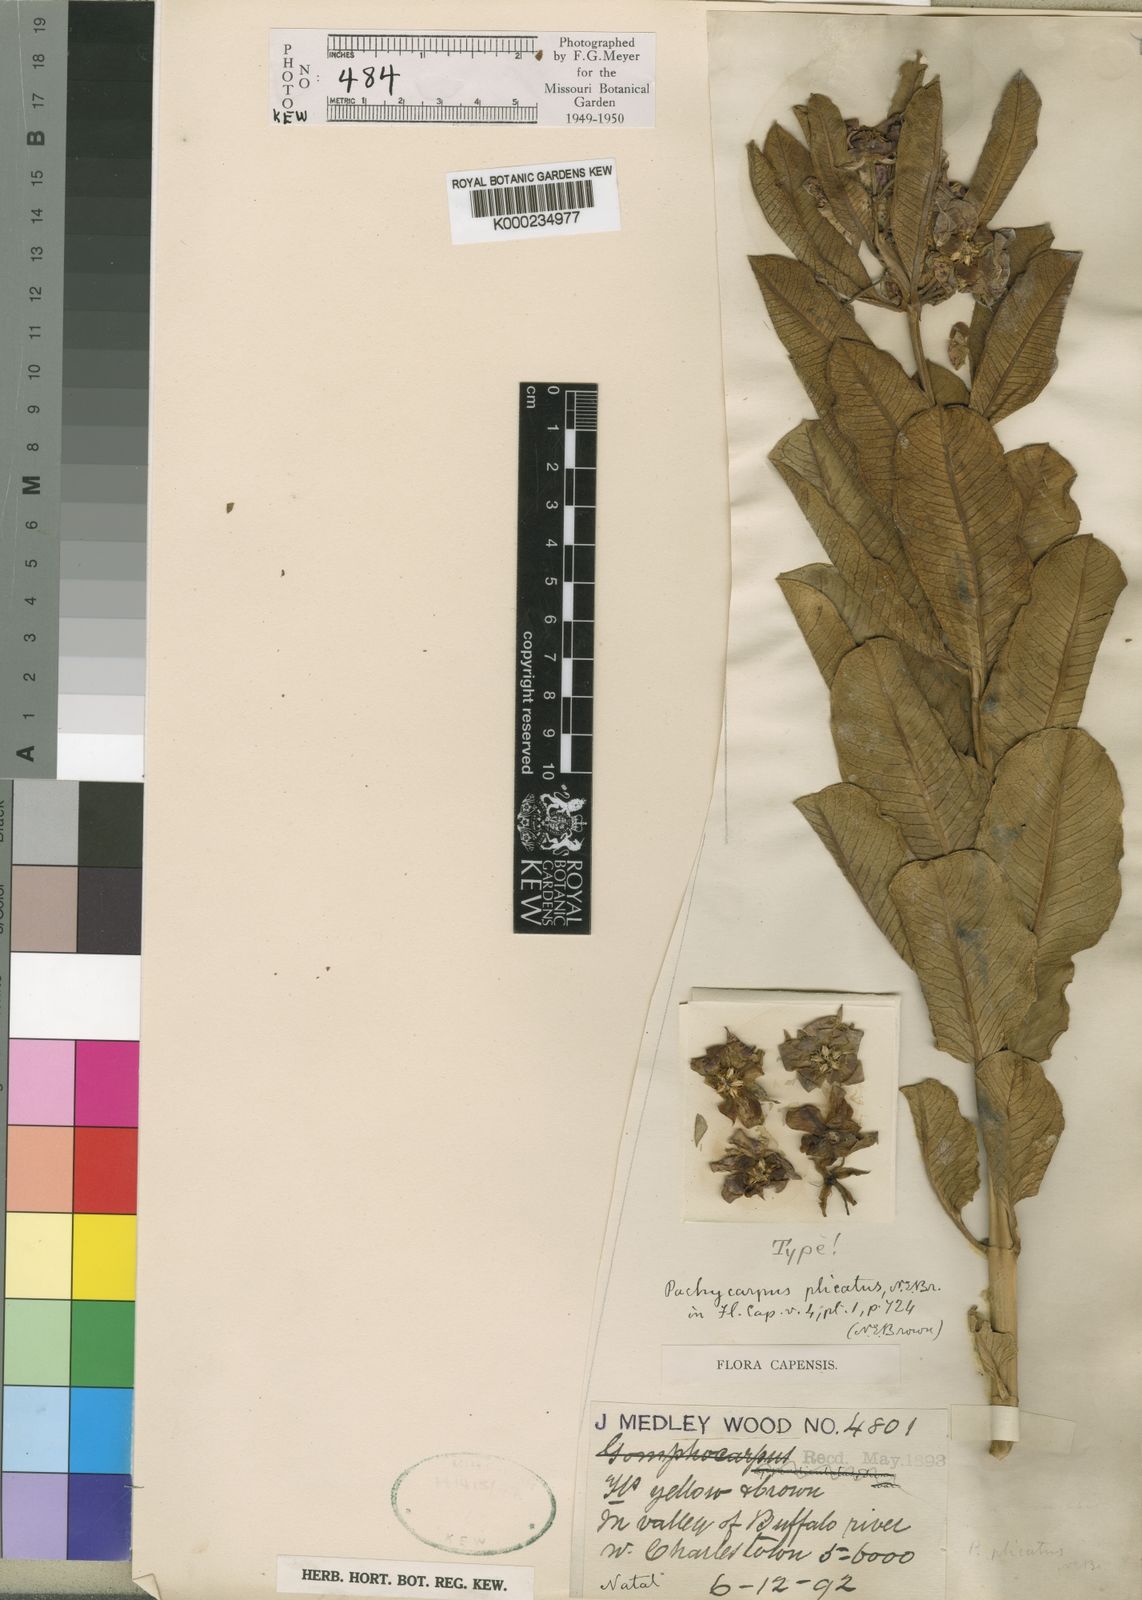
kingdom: Plantae
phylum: Tracheophyta
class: Magnoliopsida
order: Gentianales
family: Apocynaceae
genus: Pachycarpus
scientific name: Pachycarpus plicatus
